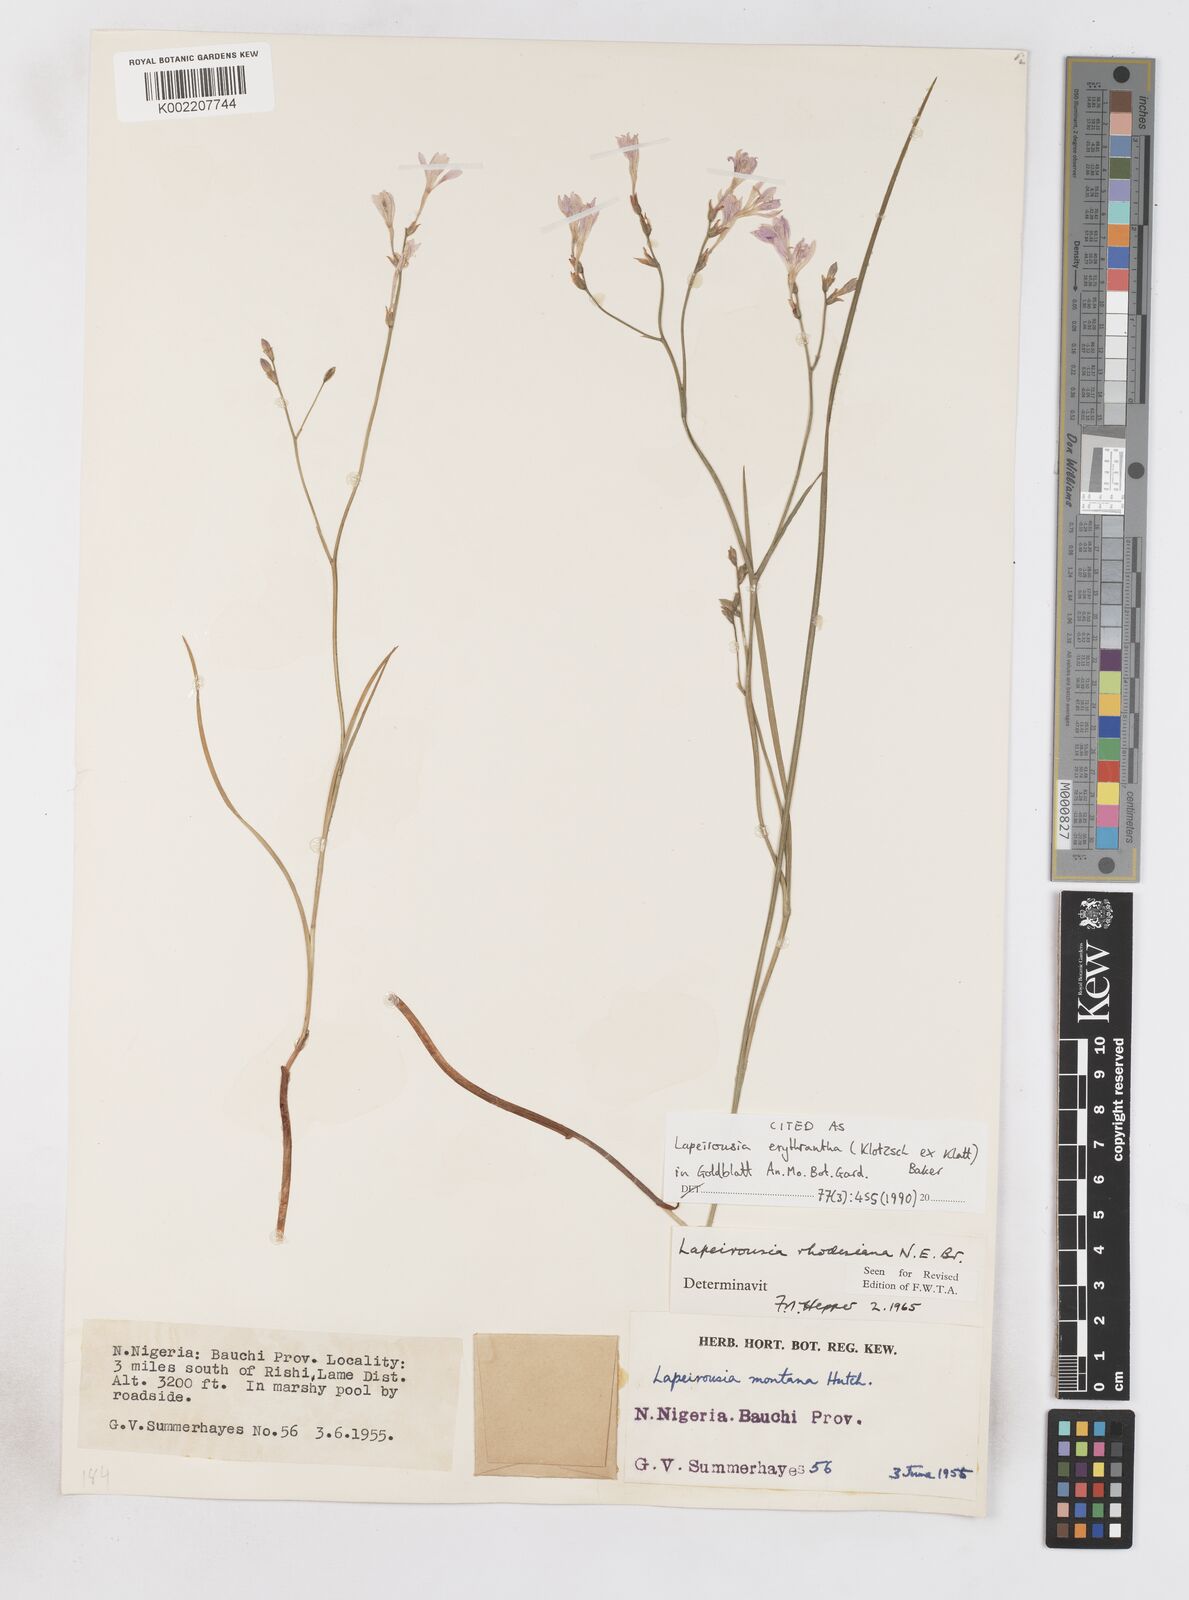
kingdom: Plantae
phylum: Tracheophyta
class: Liliopsida
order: Asparagales
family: Iridaceae
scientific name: Iridaceae
